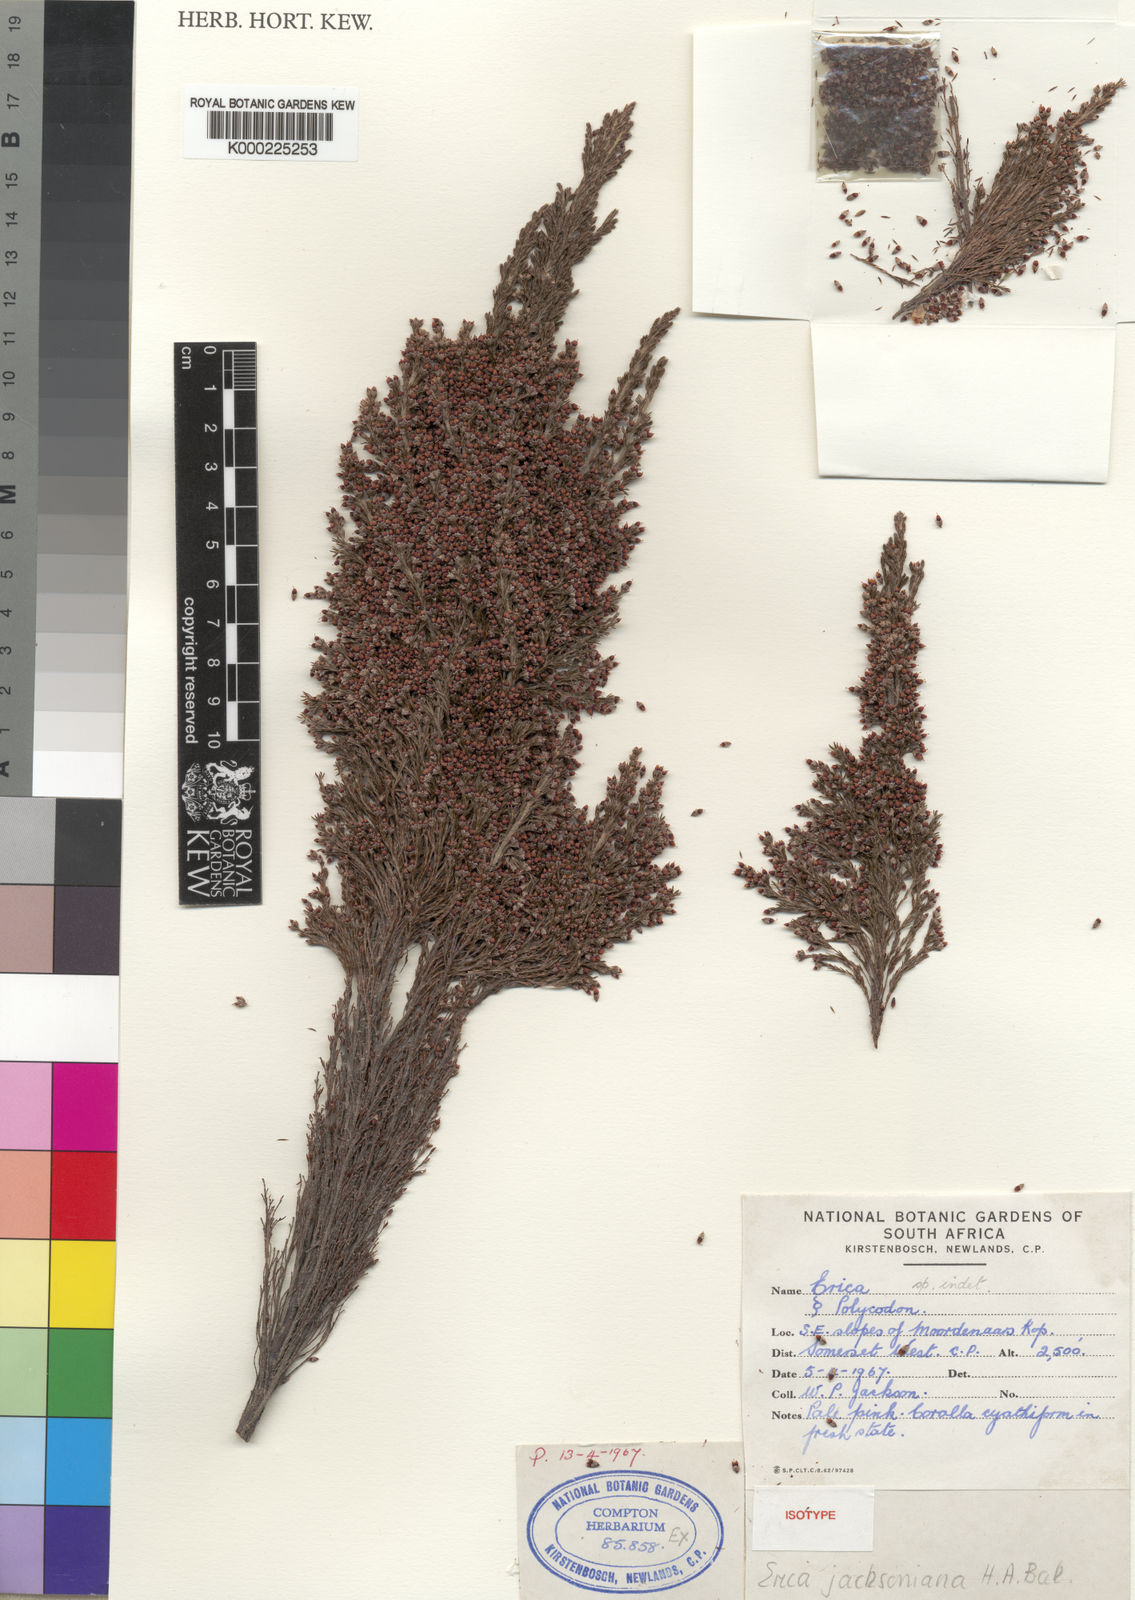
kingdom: Plantae
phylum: Tracheophyta
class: Magnoliopsida
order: Ericales
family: Ericaceae
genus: Erica
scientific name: Erica jacksoniana
